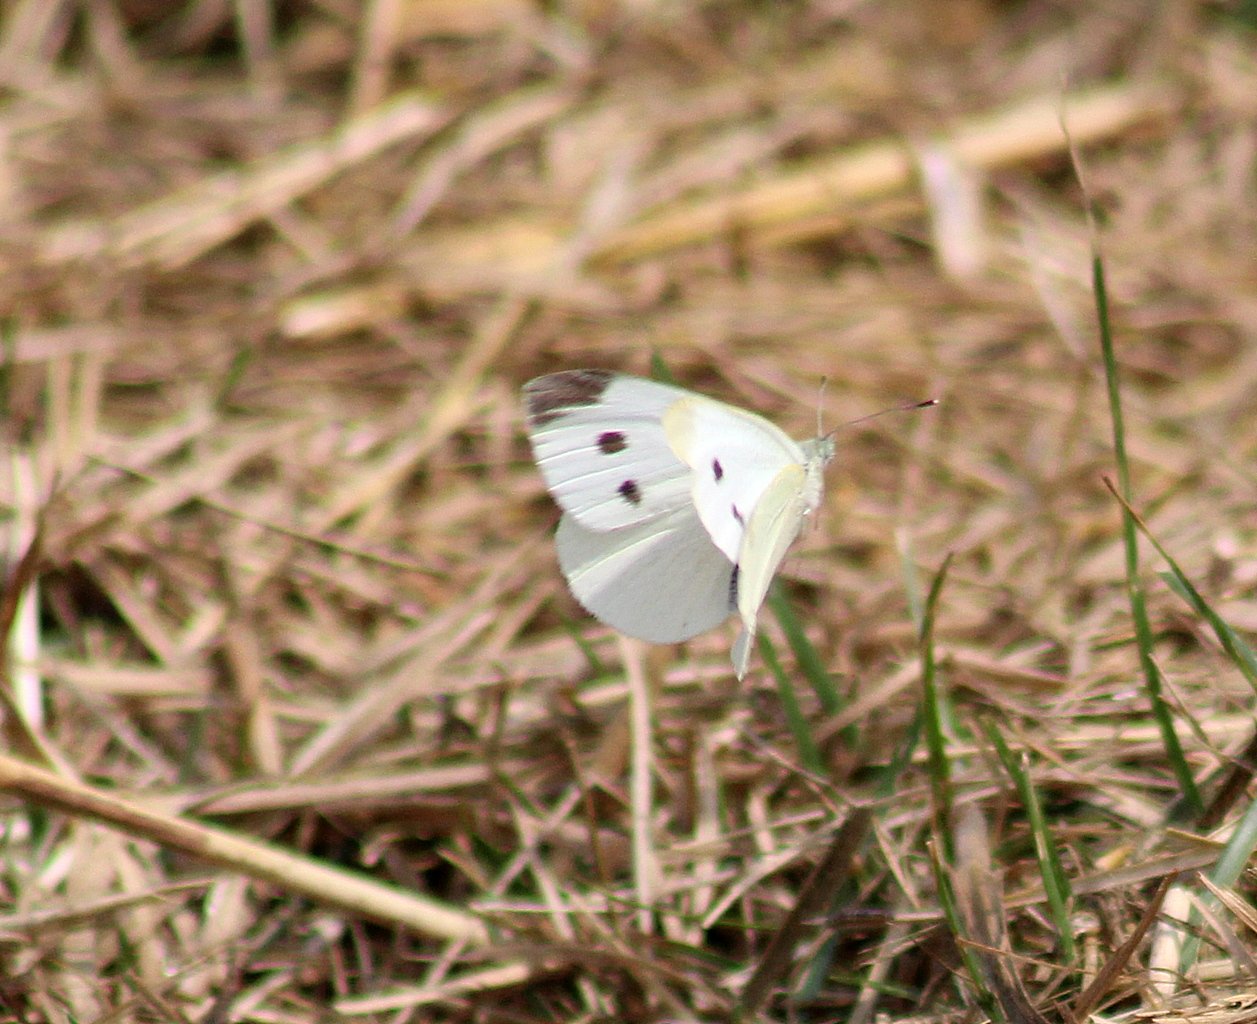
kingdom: Animalia
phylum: Arthropoda
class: Insecta
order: Lepidoptera
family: Pieridae
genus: Pieris
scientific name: Pieris rapae
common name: Cabbage White
